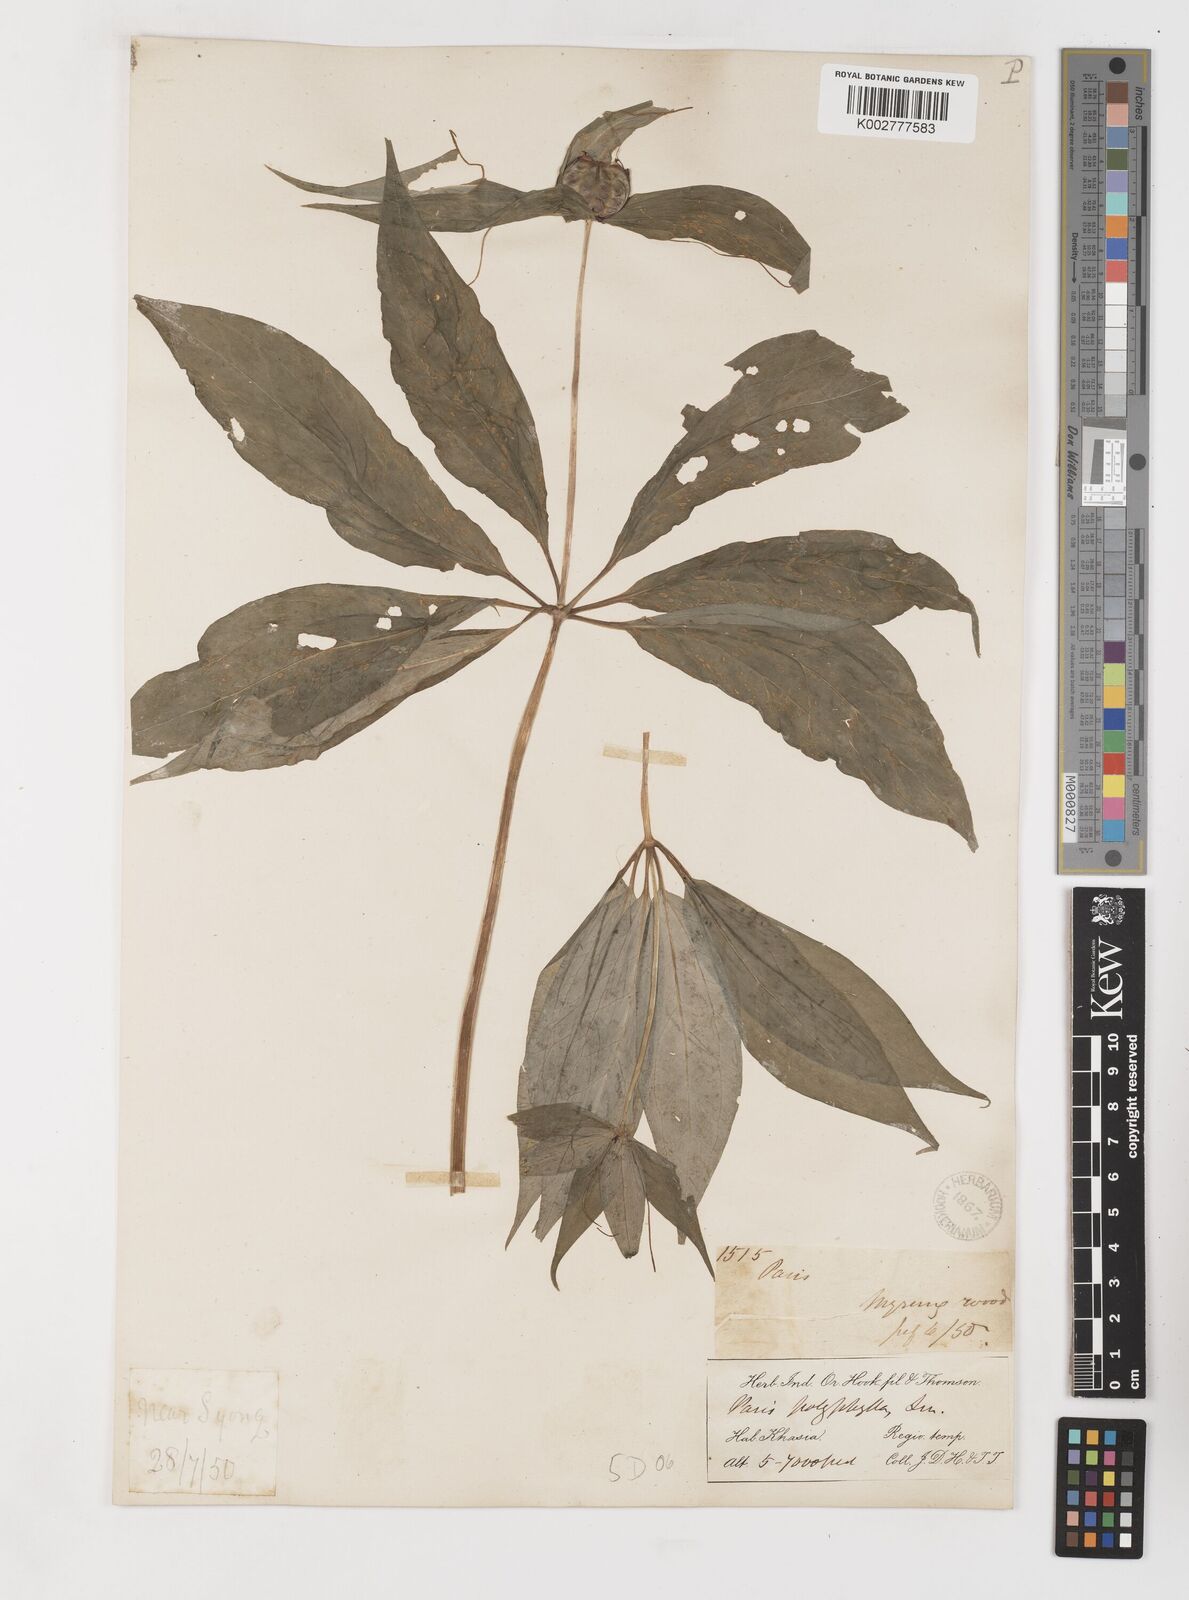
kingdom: Plantae
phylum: Tracheophyta
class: Liliopsida
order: Liliales
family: Melanthiaceae
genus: Paris
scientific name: Paris polyphylla
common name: Love apple
